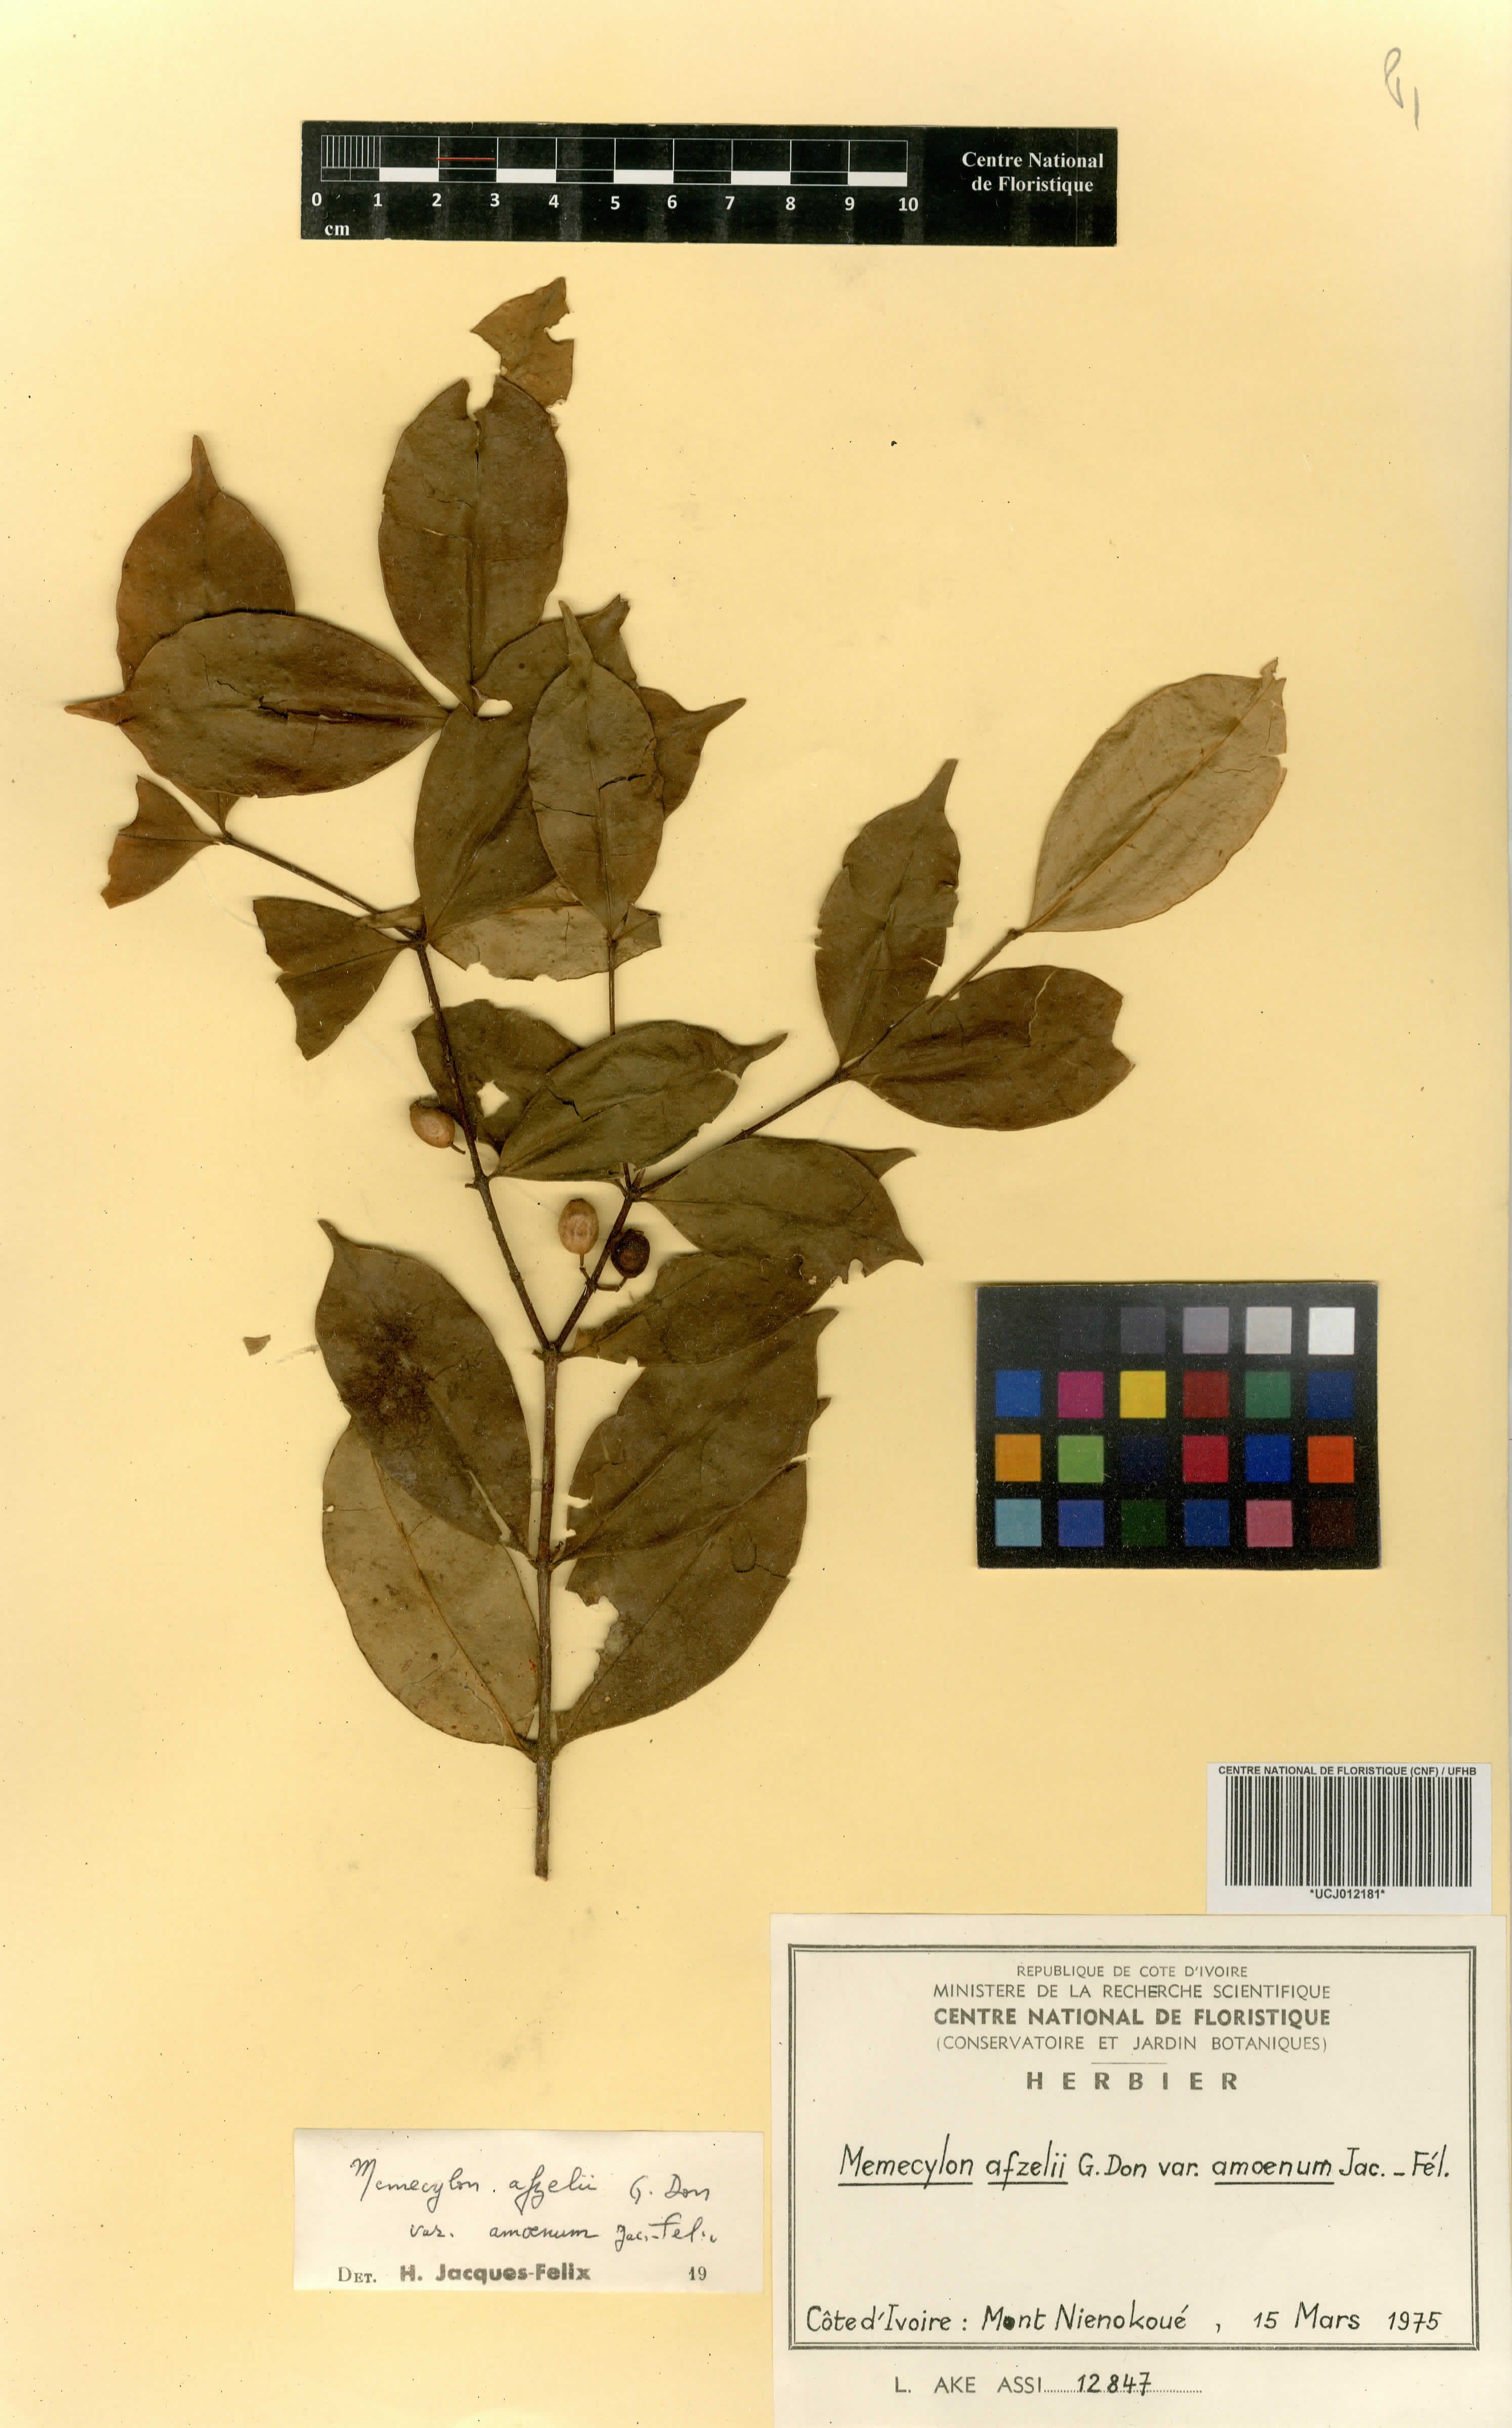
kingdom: Plantae
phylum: Tracheophyta
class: Magnoliopsida
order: Myrtales
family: Melastomataceae
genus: Memecylon
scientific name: Memecylon accedens
